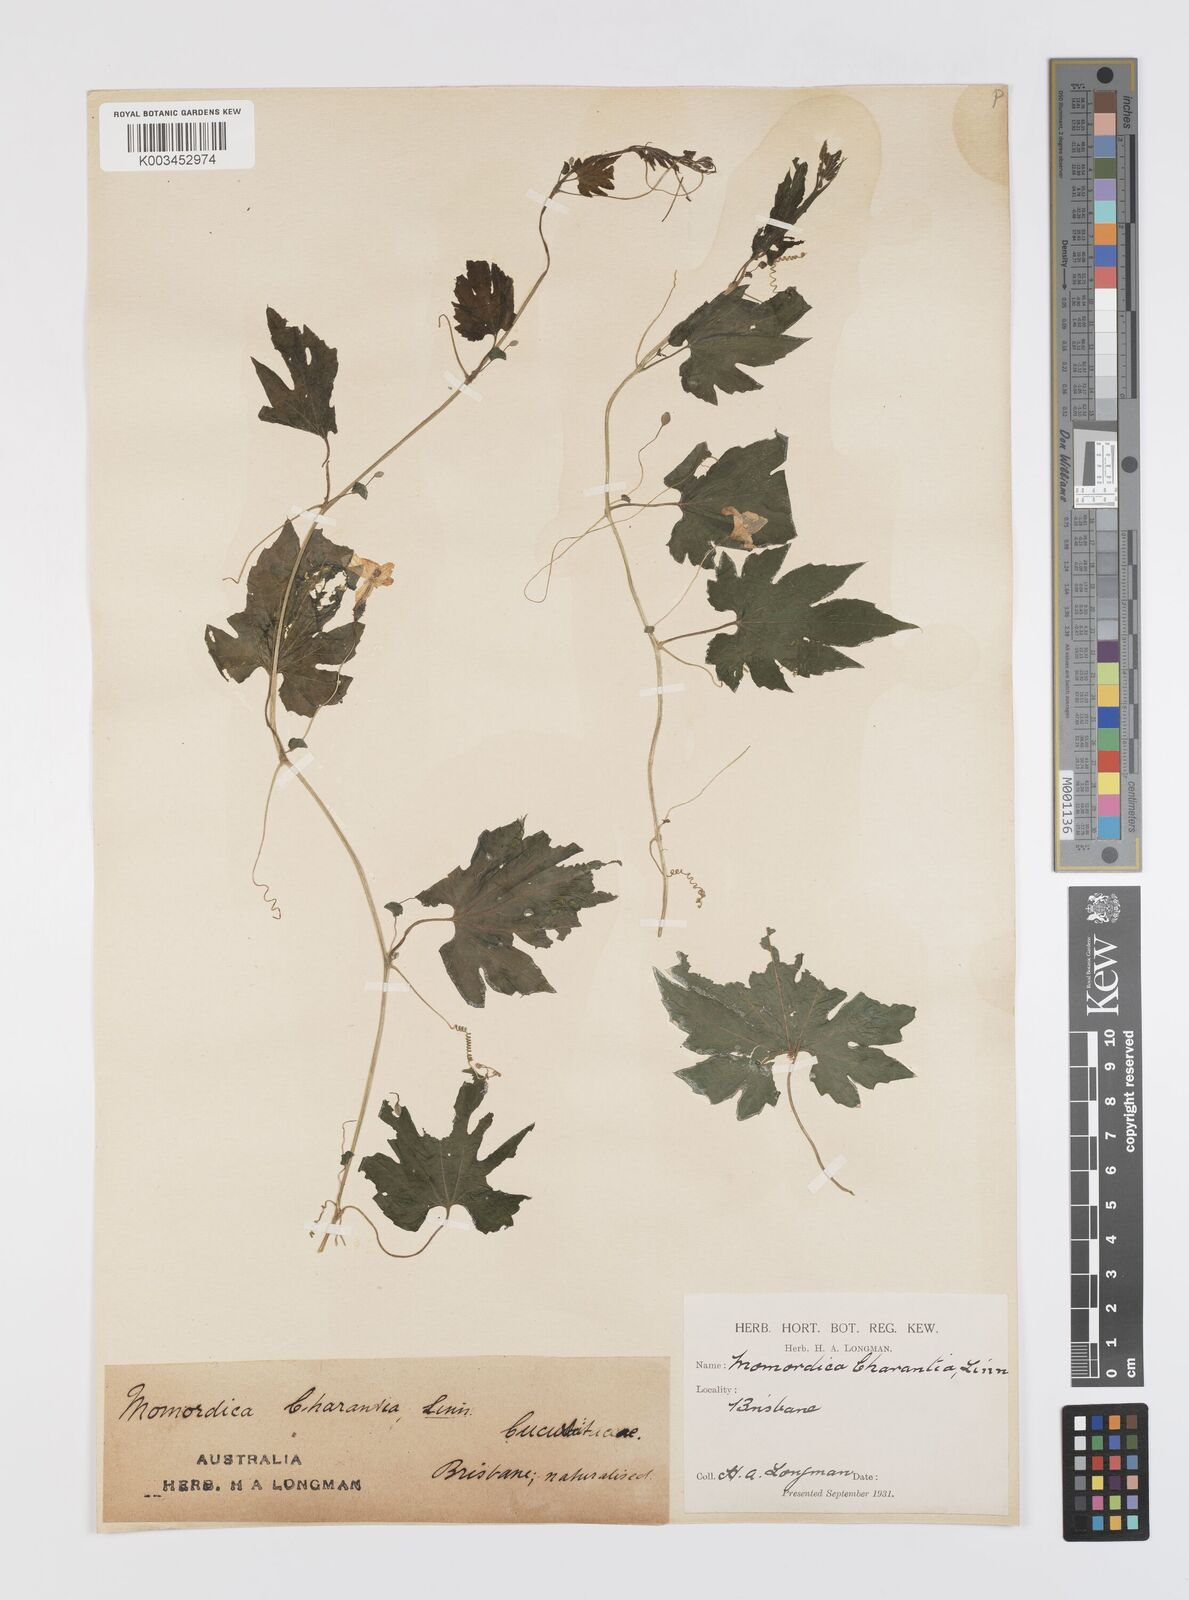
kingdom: Plantae
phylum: Tracheophyta
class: Magnoliopsida
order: Cucurbitales
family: Cucurbitaceae
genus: Momordica
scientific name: Momordica charantia
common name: Balsampear
